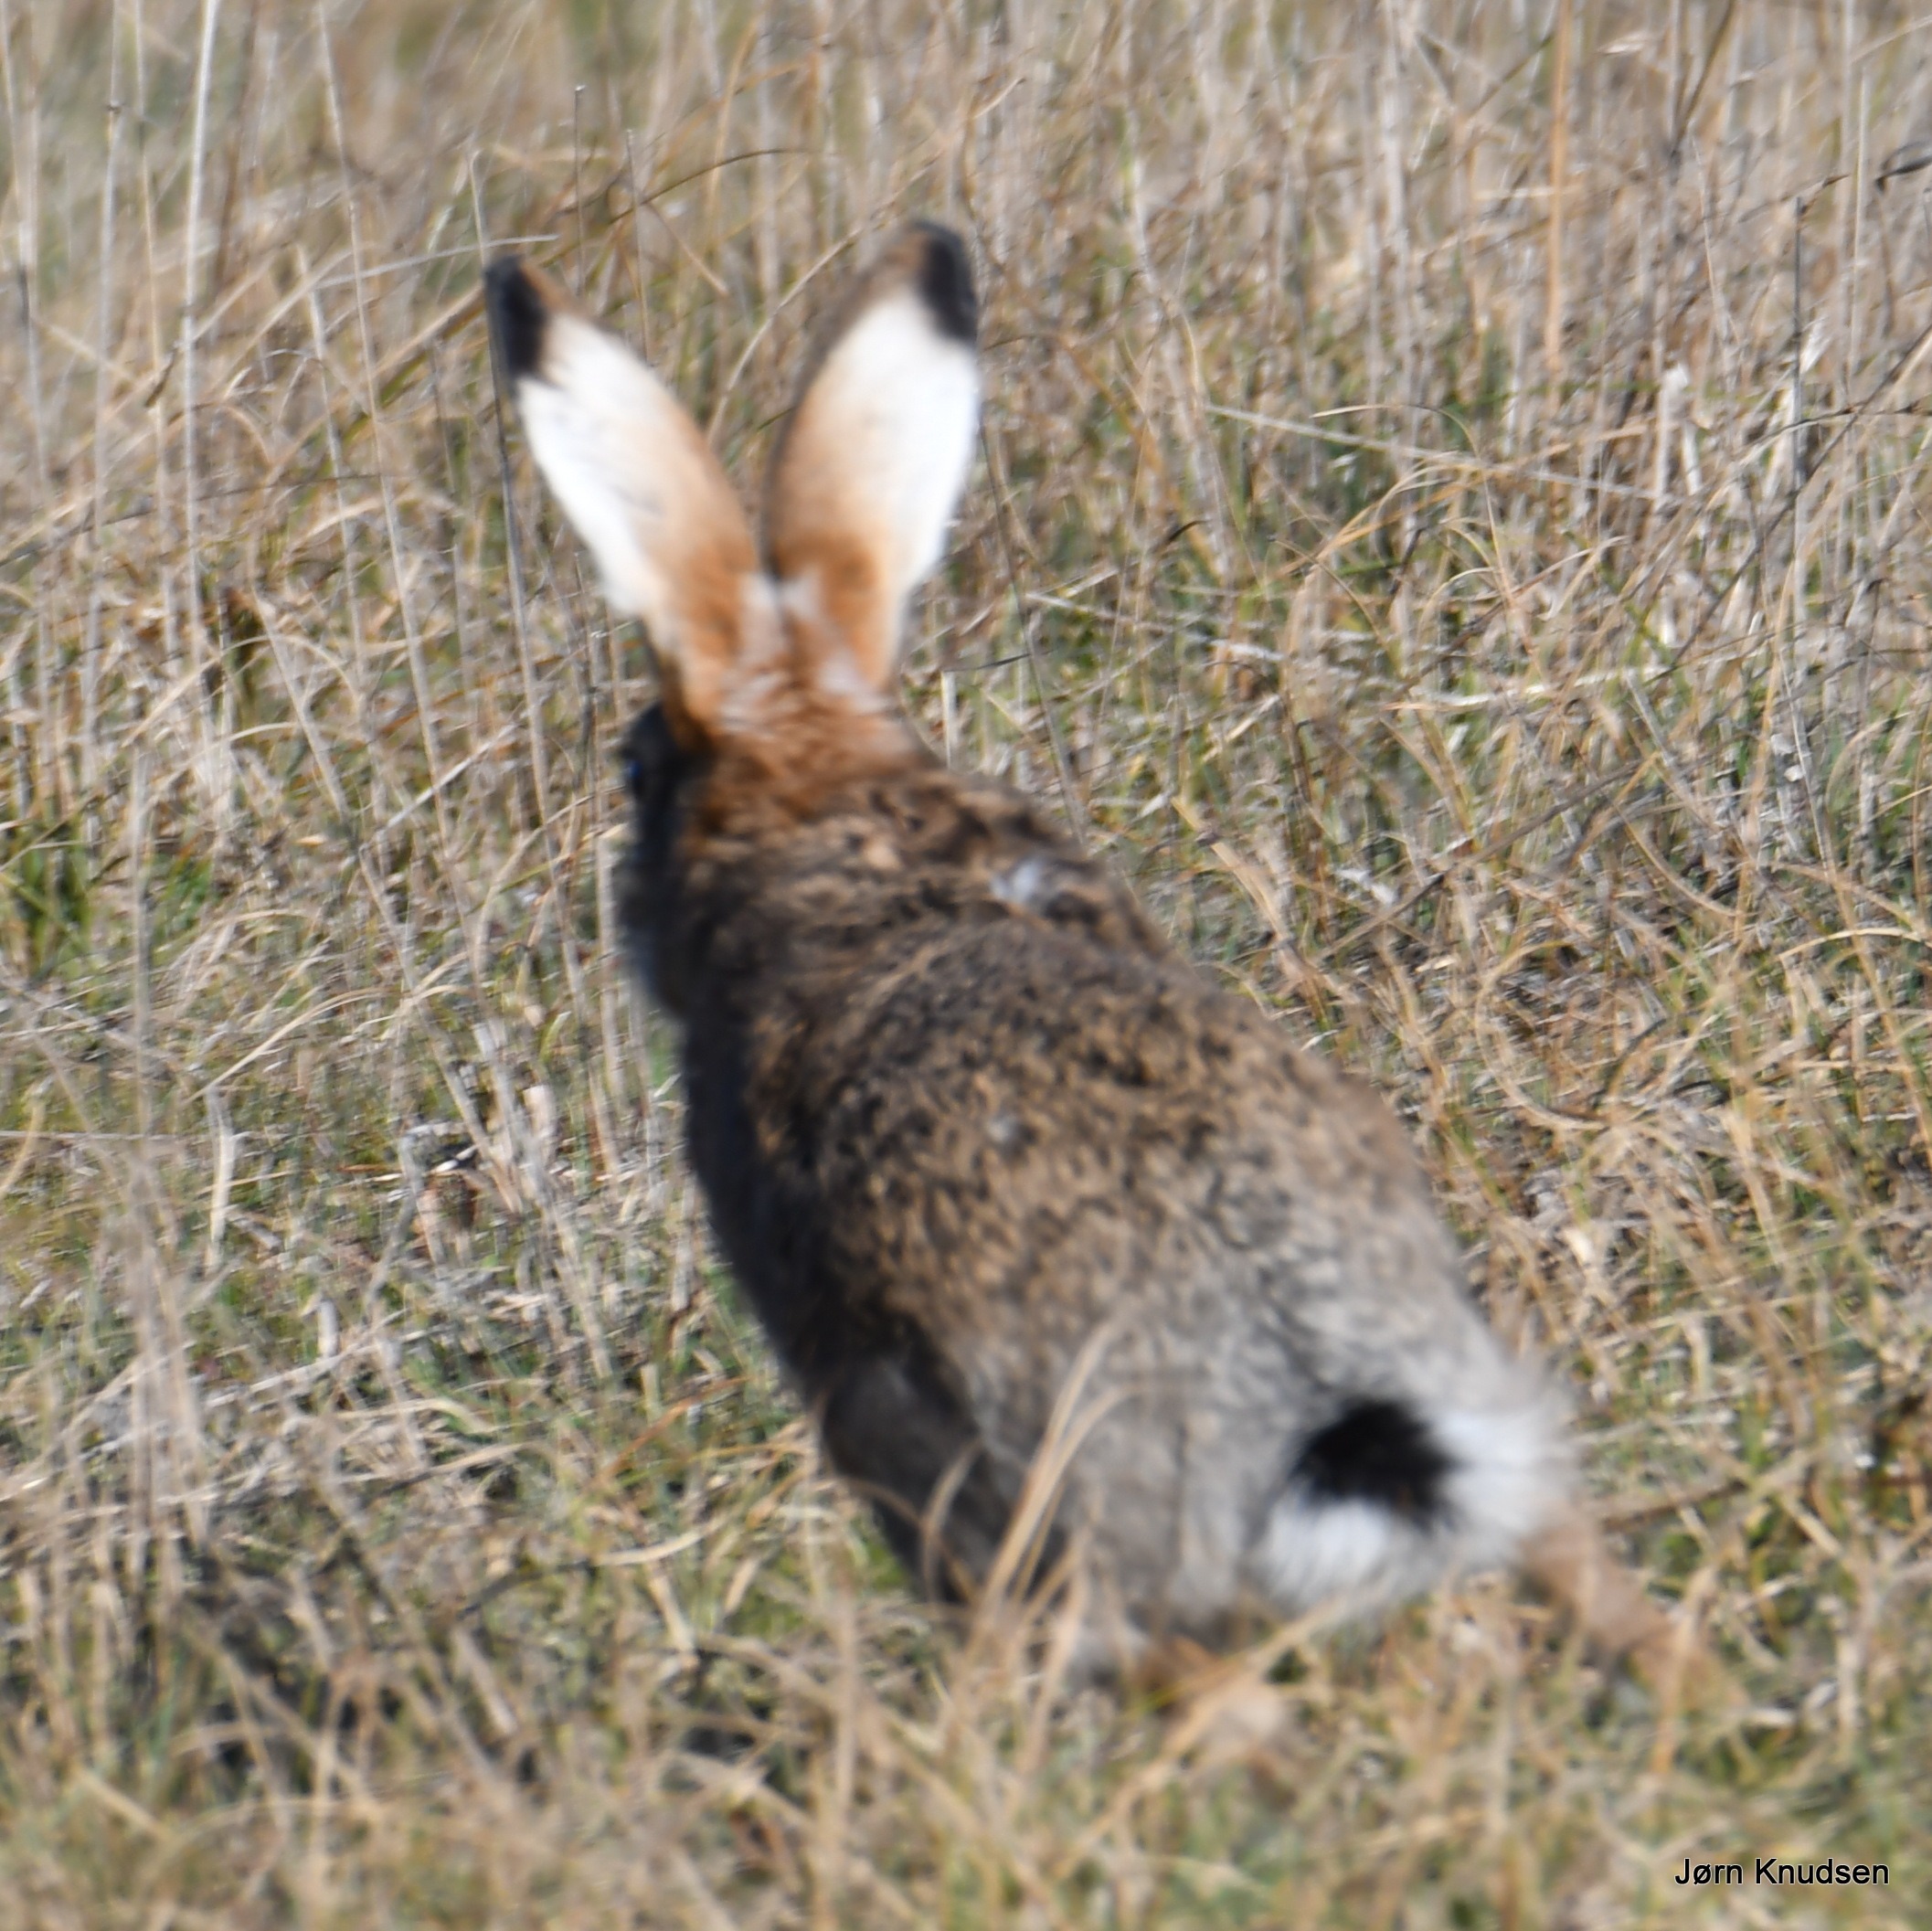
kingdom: Animalia
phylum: Chordata
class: Mammalia
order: Lagomorpha
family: Leporidae
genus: Lepus
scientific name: Lepus europaeus
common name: Hare
